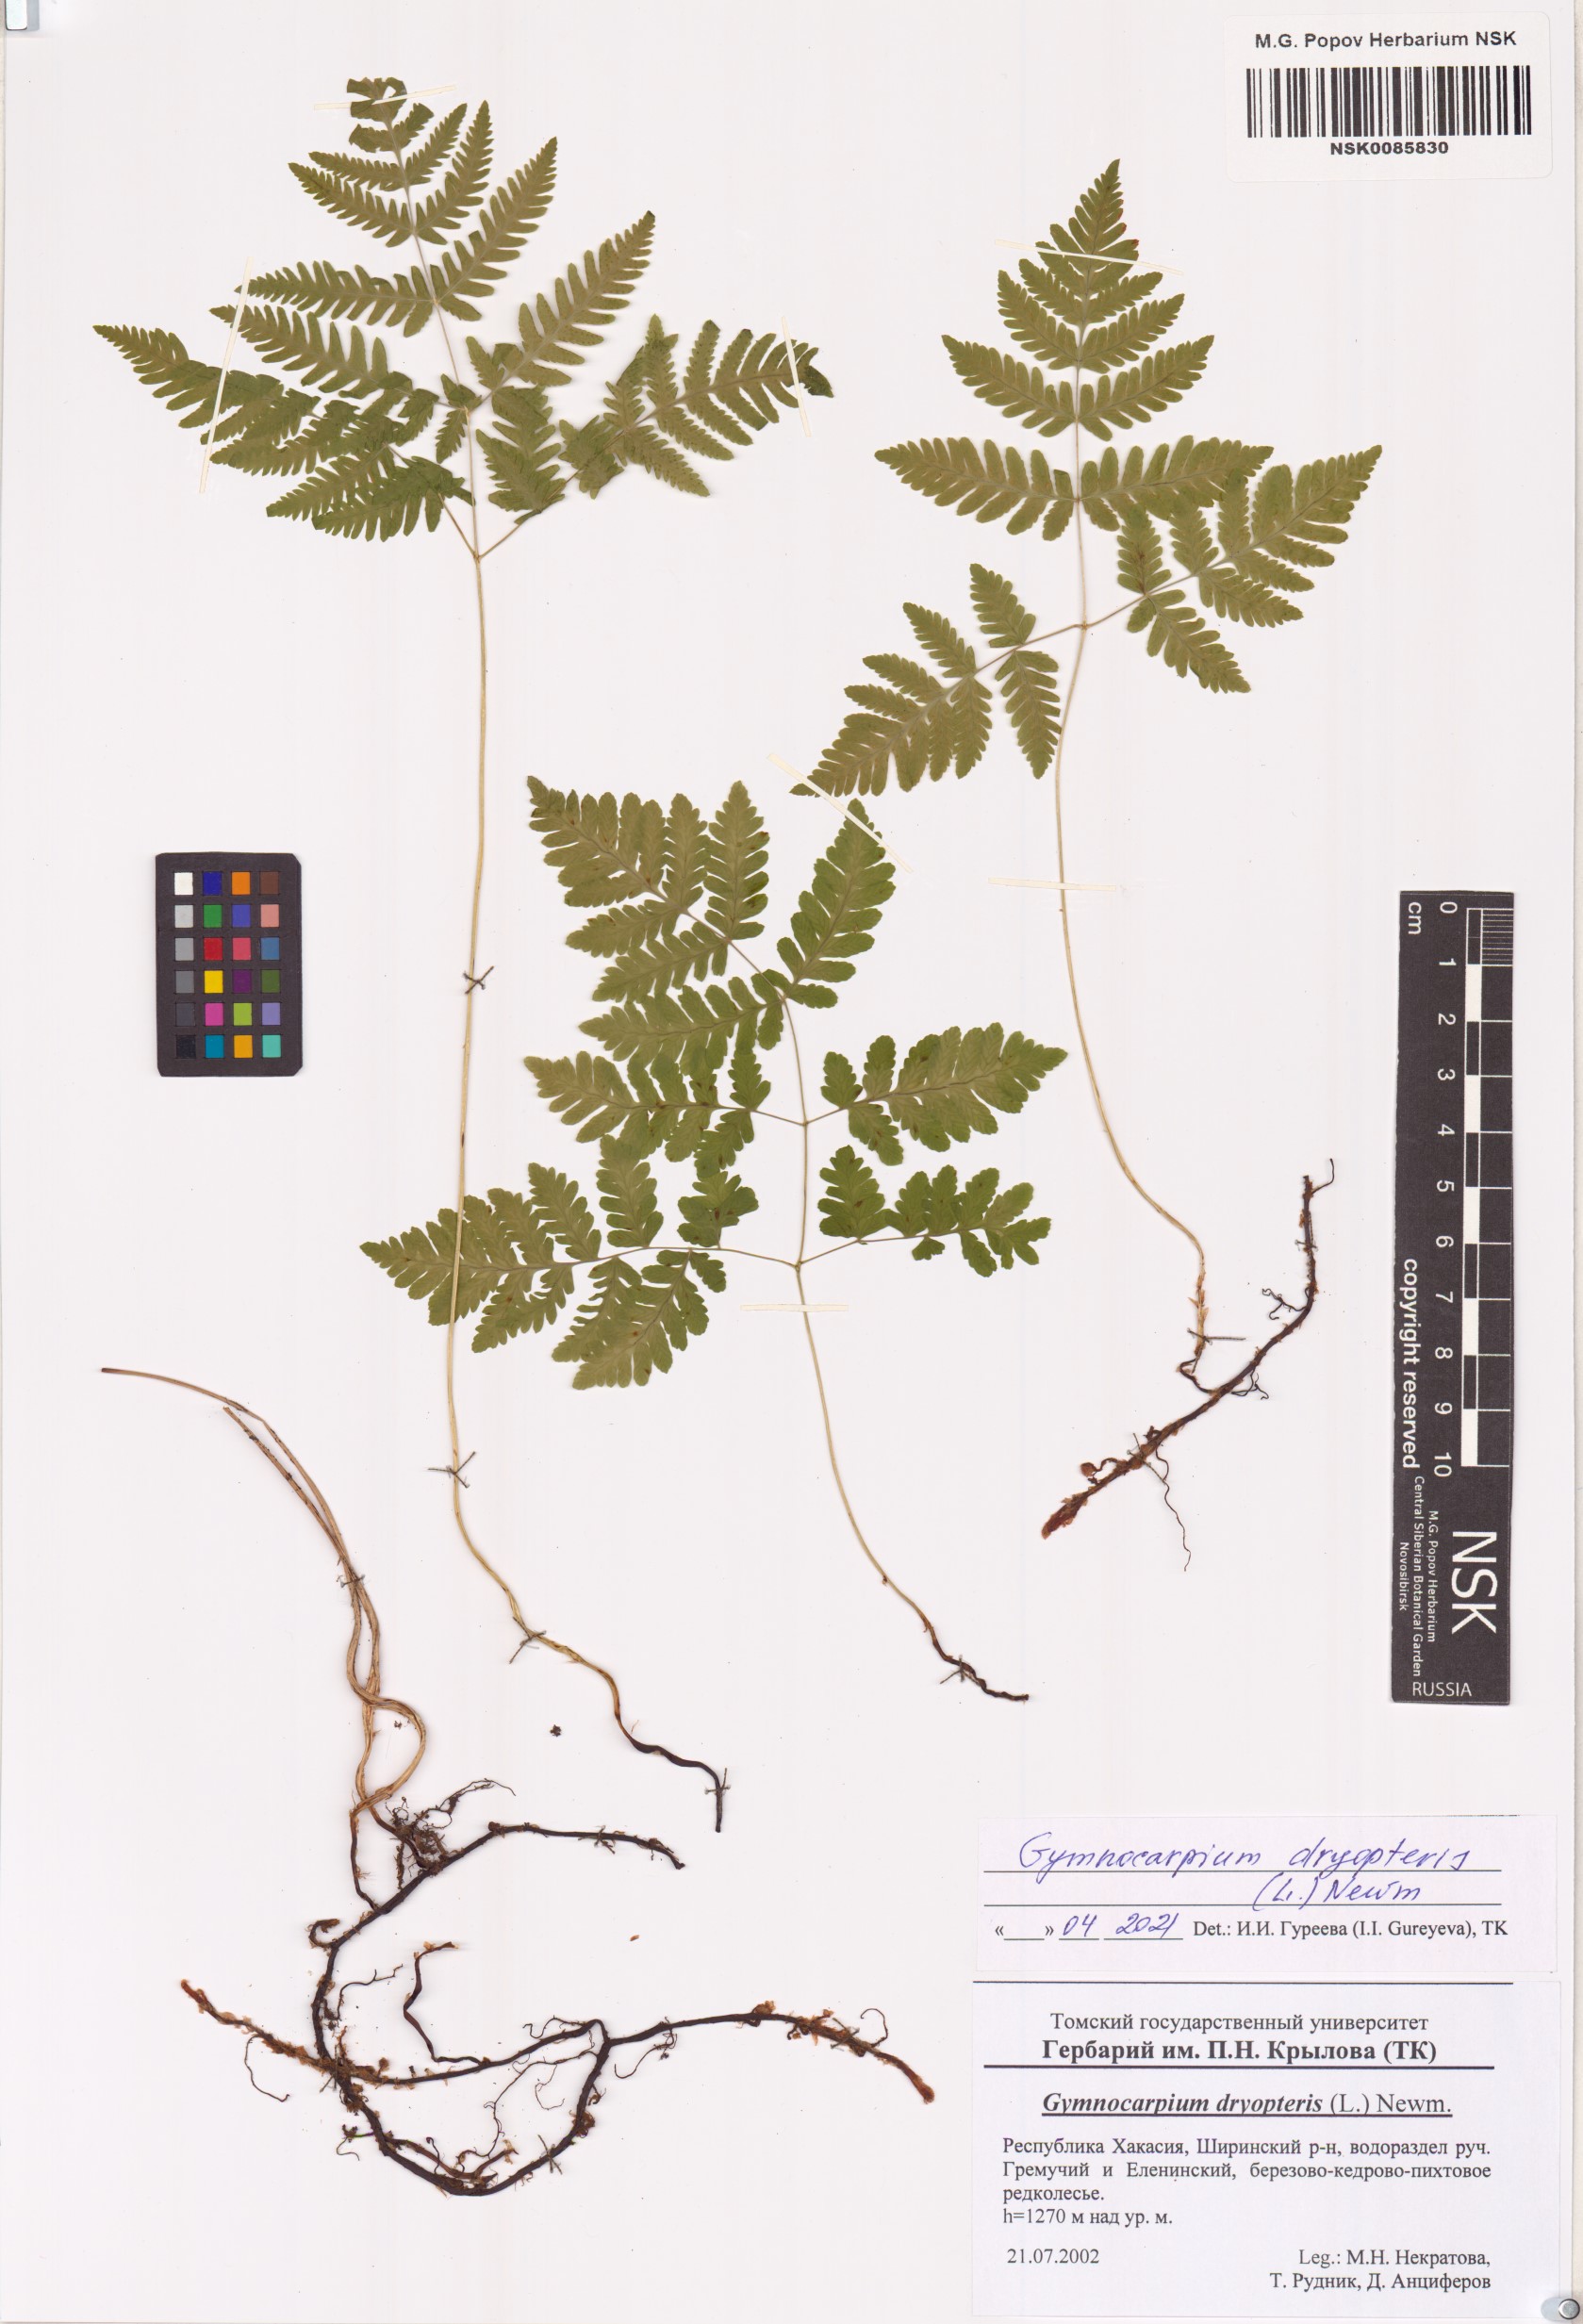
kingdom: Plantae
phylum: Tracheophyta
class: Polypodiopsida
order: Polypodiales
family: Cystopteridaceae
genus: Gymnocarpium
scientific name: Gymnocarpium dryopteris
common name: Oak fern
